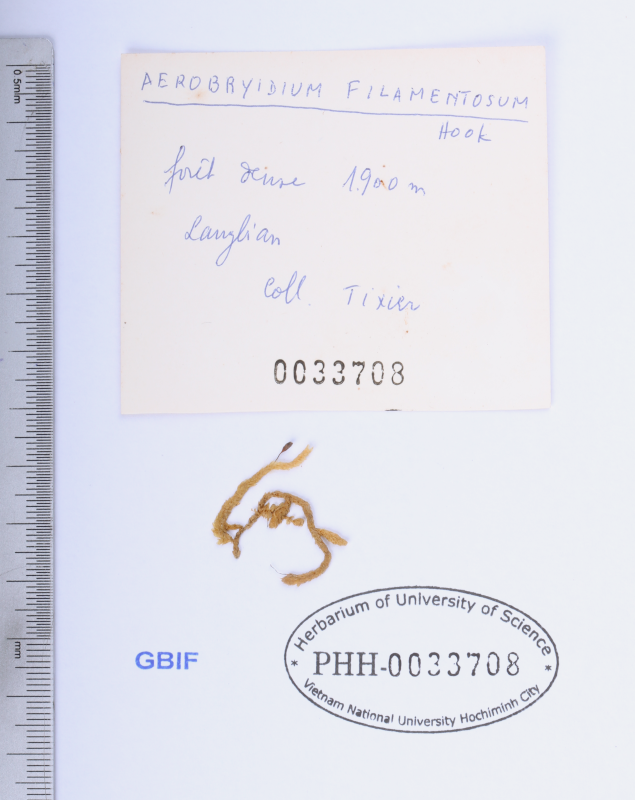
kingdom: Plantae
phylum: Bryophyta
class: Bryopsida
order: Hypnales
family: Meteoriaceae
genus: Aerobryidium
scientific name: Aerobryidium filamentosum
